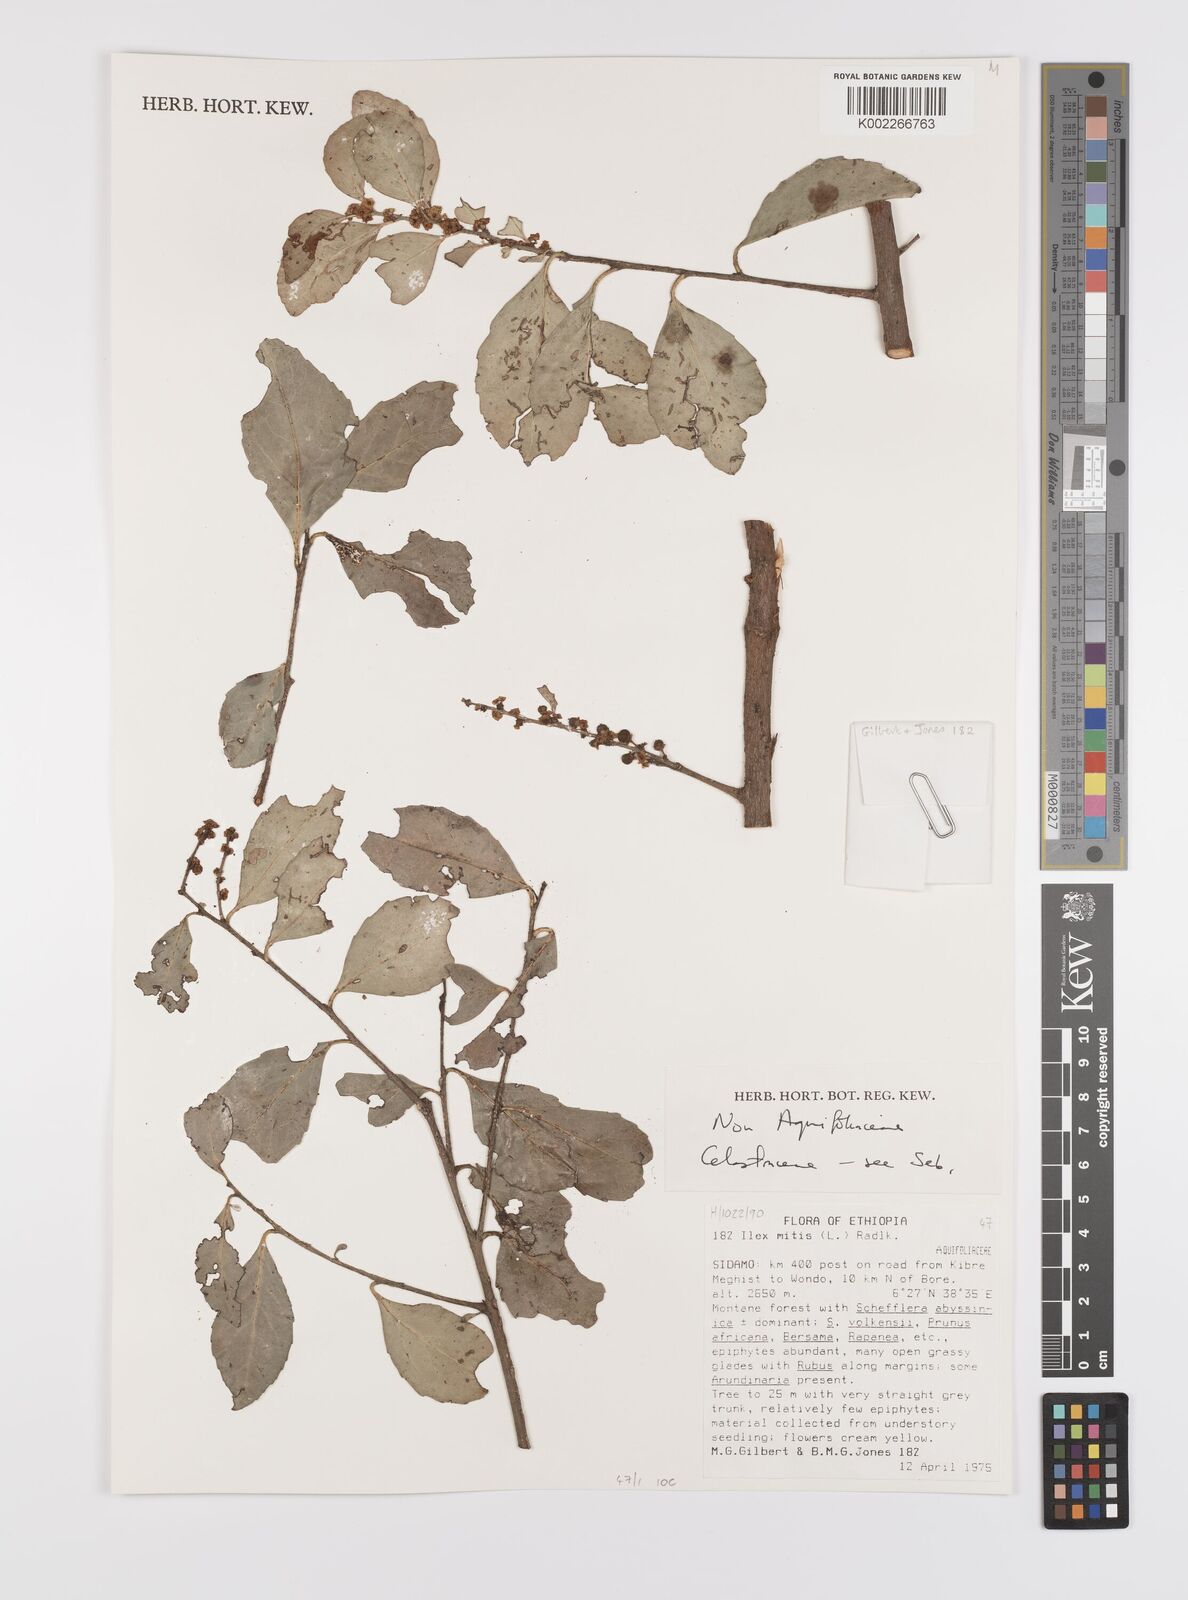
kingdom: Plantae
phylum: Tracheophyta
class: Magnoliopsida
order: Celastrales
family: Celastraceae
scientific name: Celastraceae
